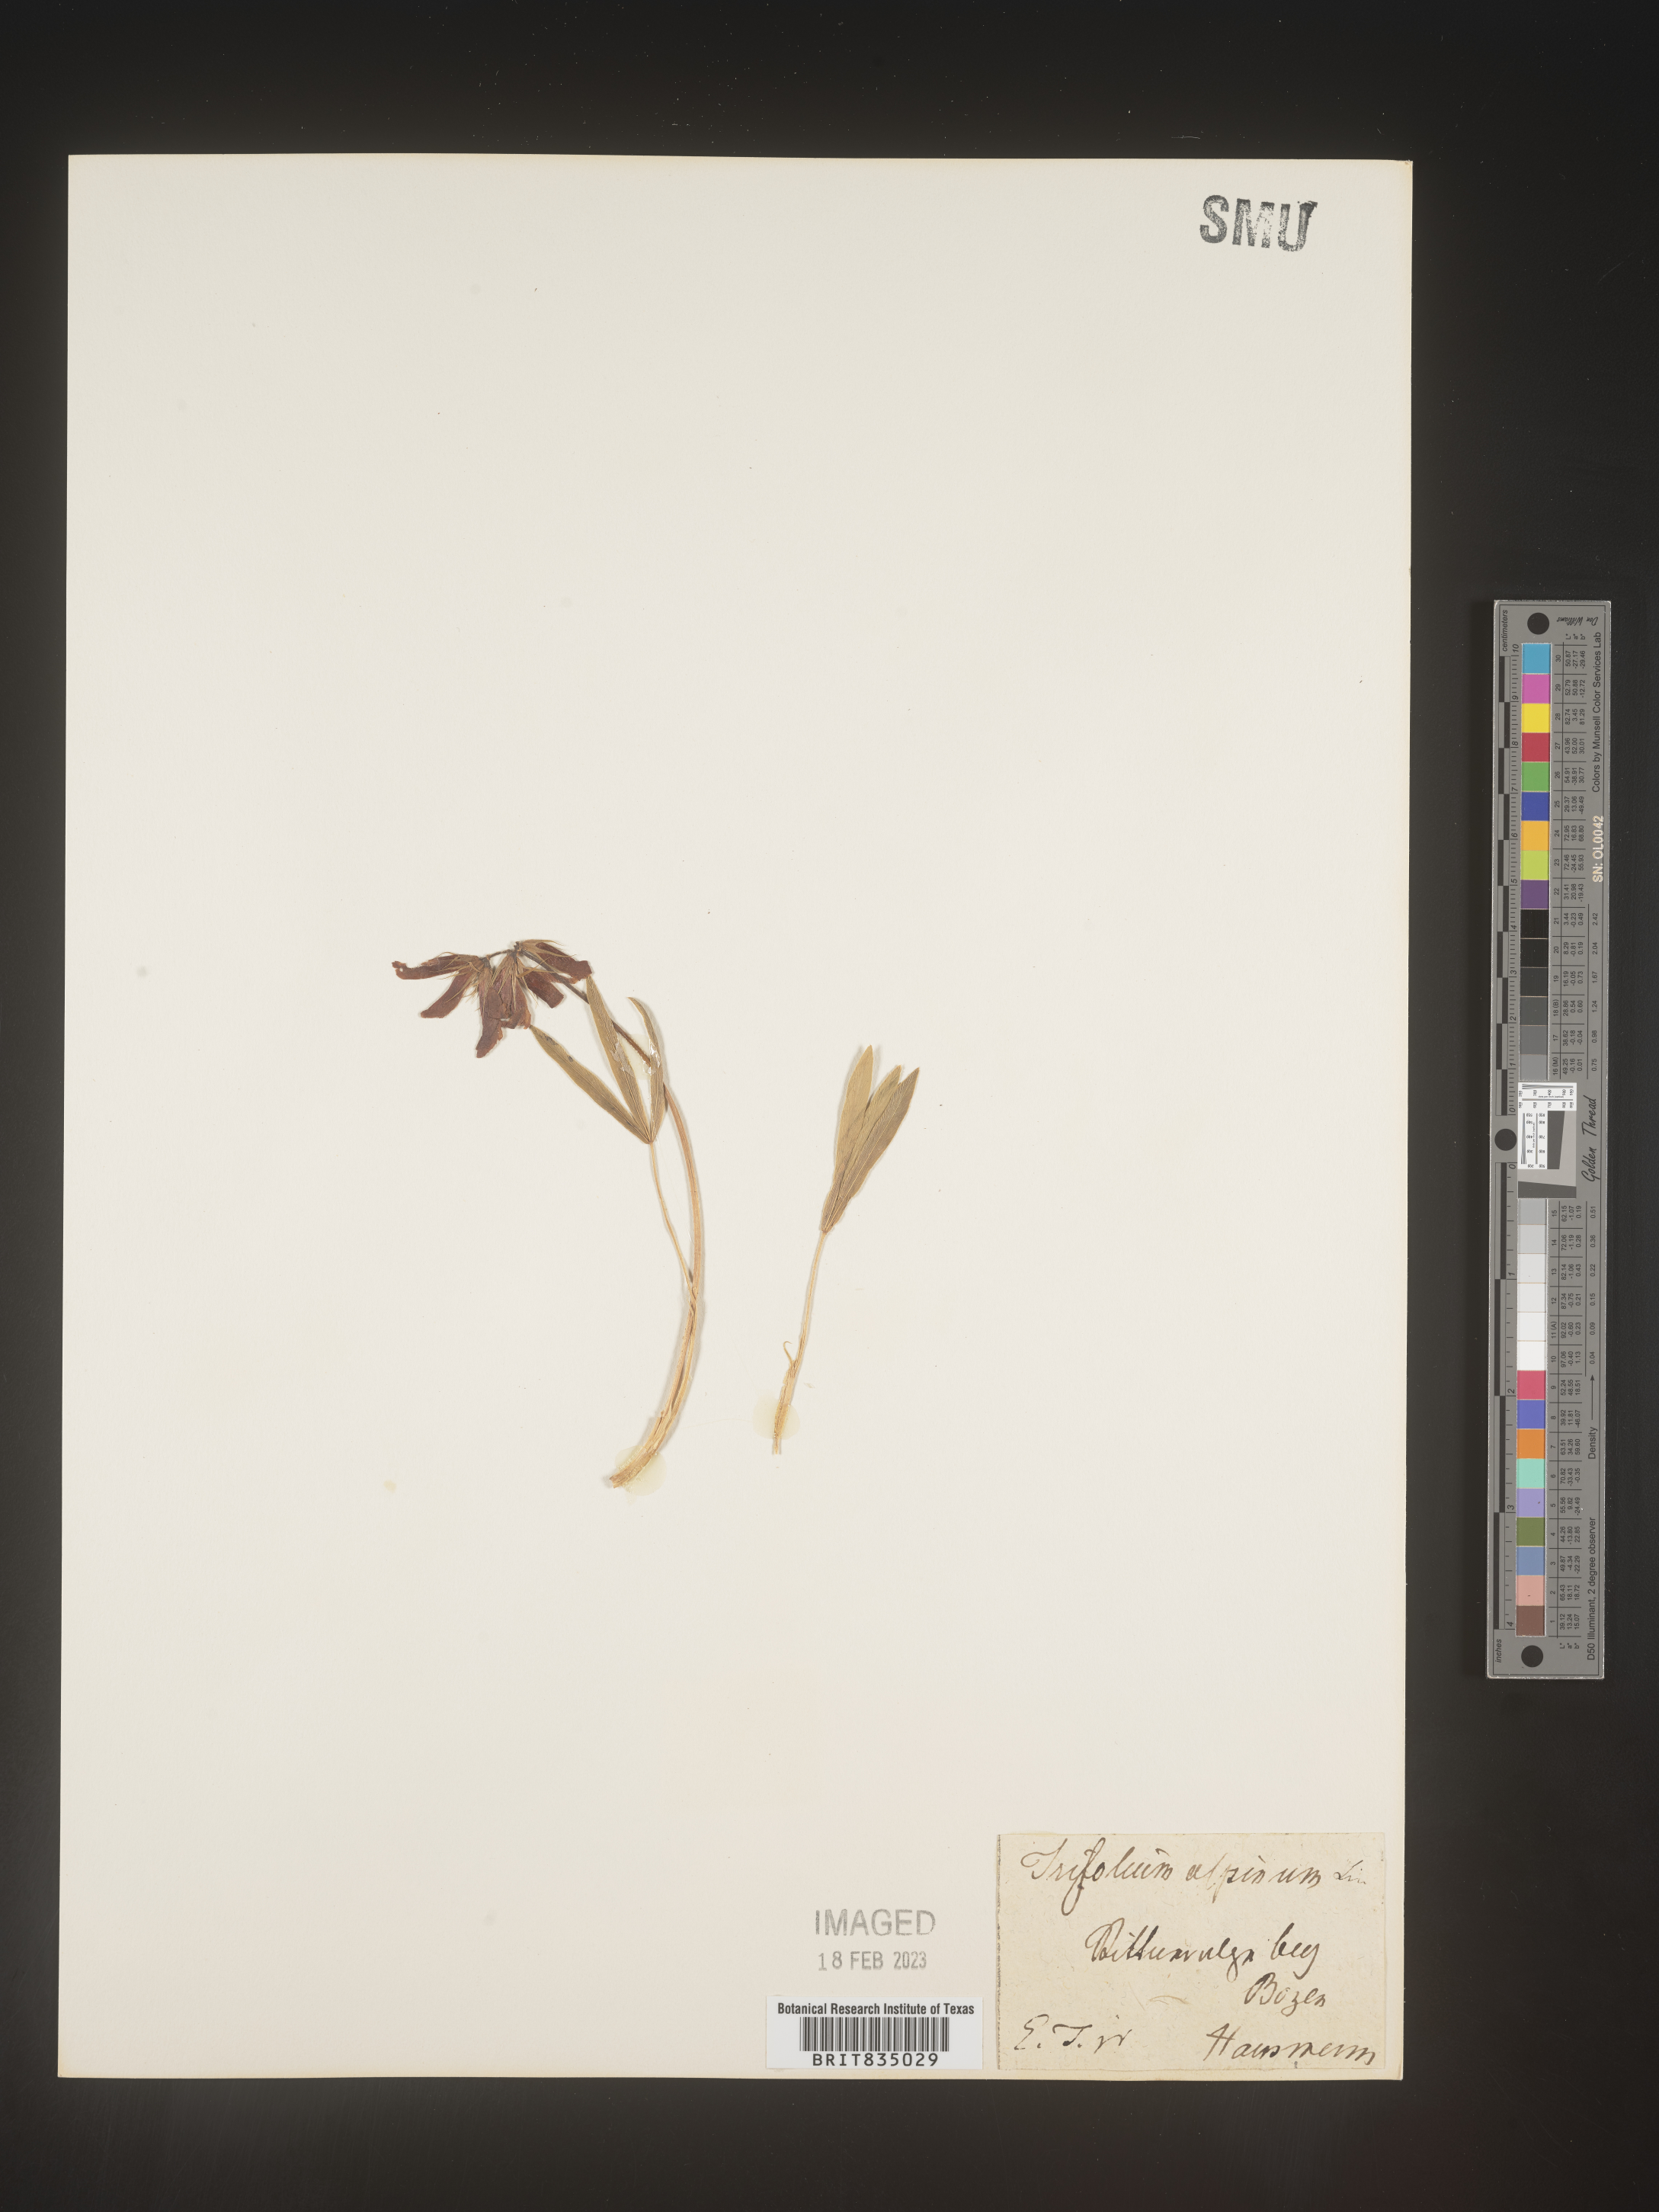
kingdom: Plantae
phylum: Tracheophyta
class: Magnoliopsida
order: Fabales
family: Fabaceae
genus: Trifolium
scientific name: Trifolium
